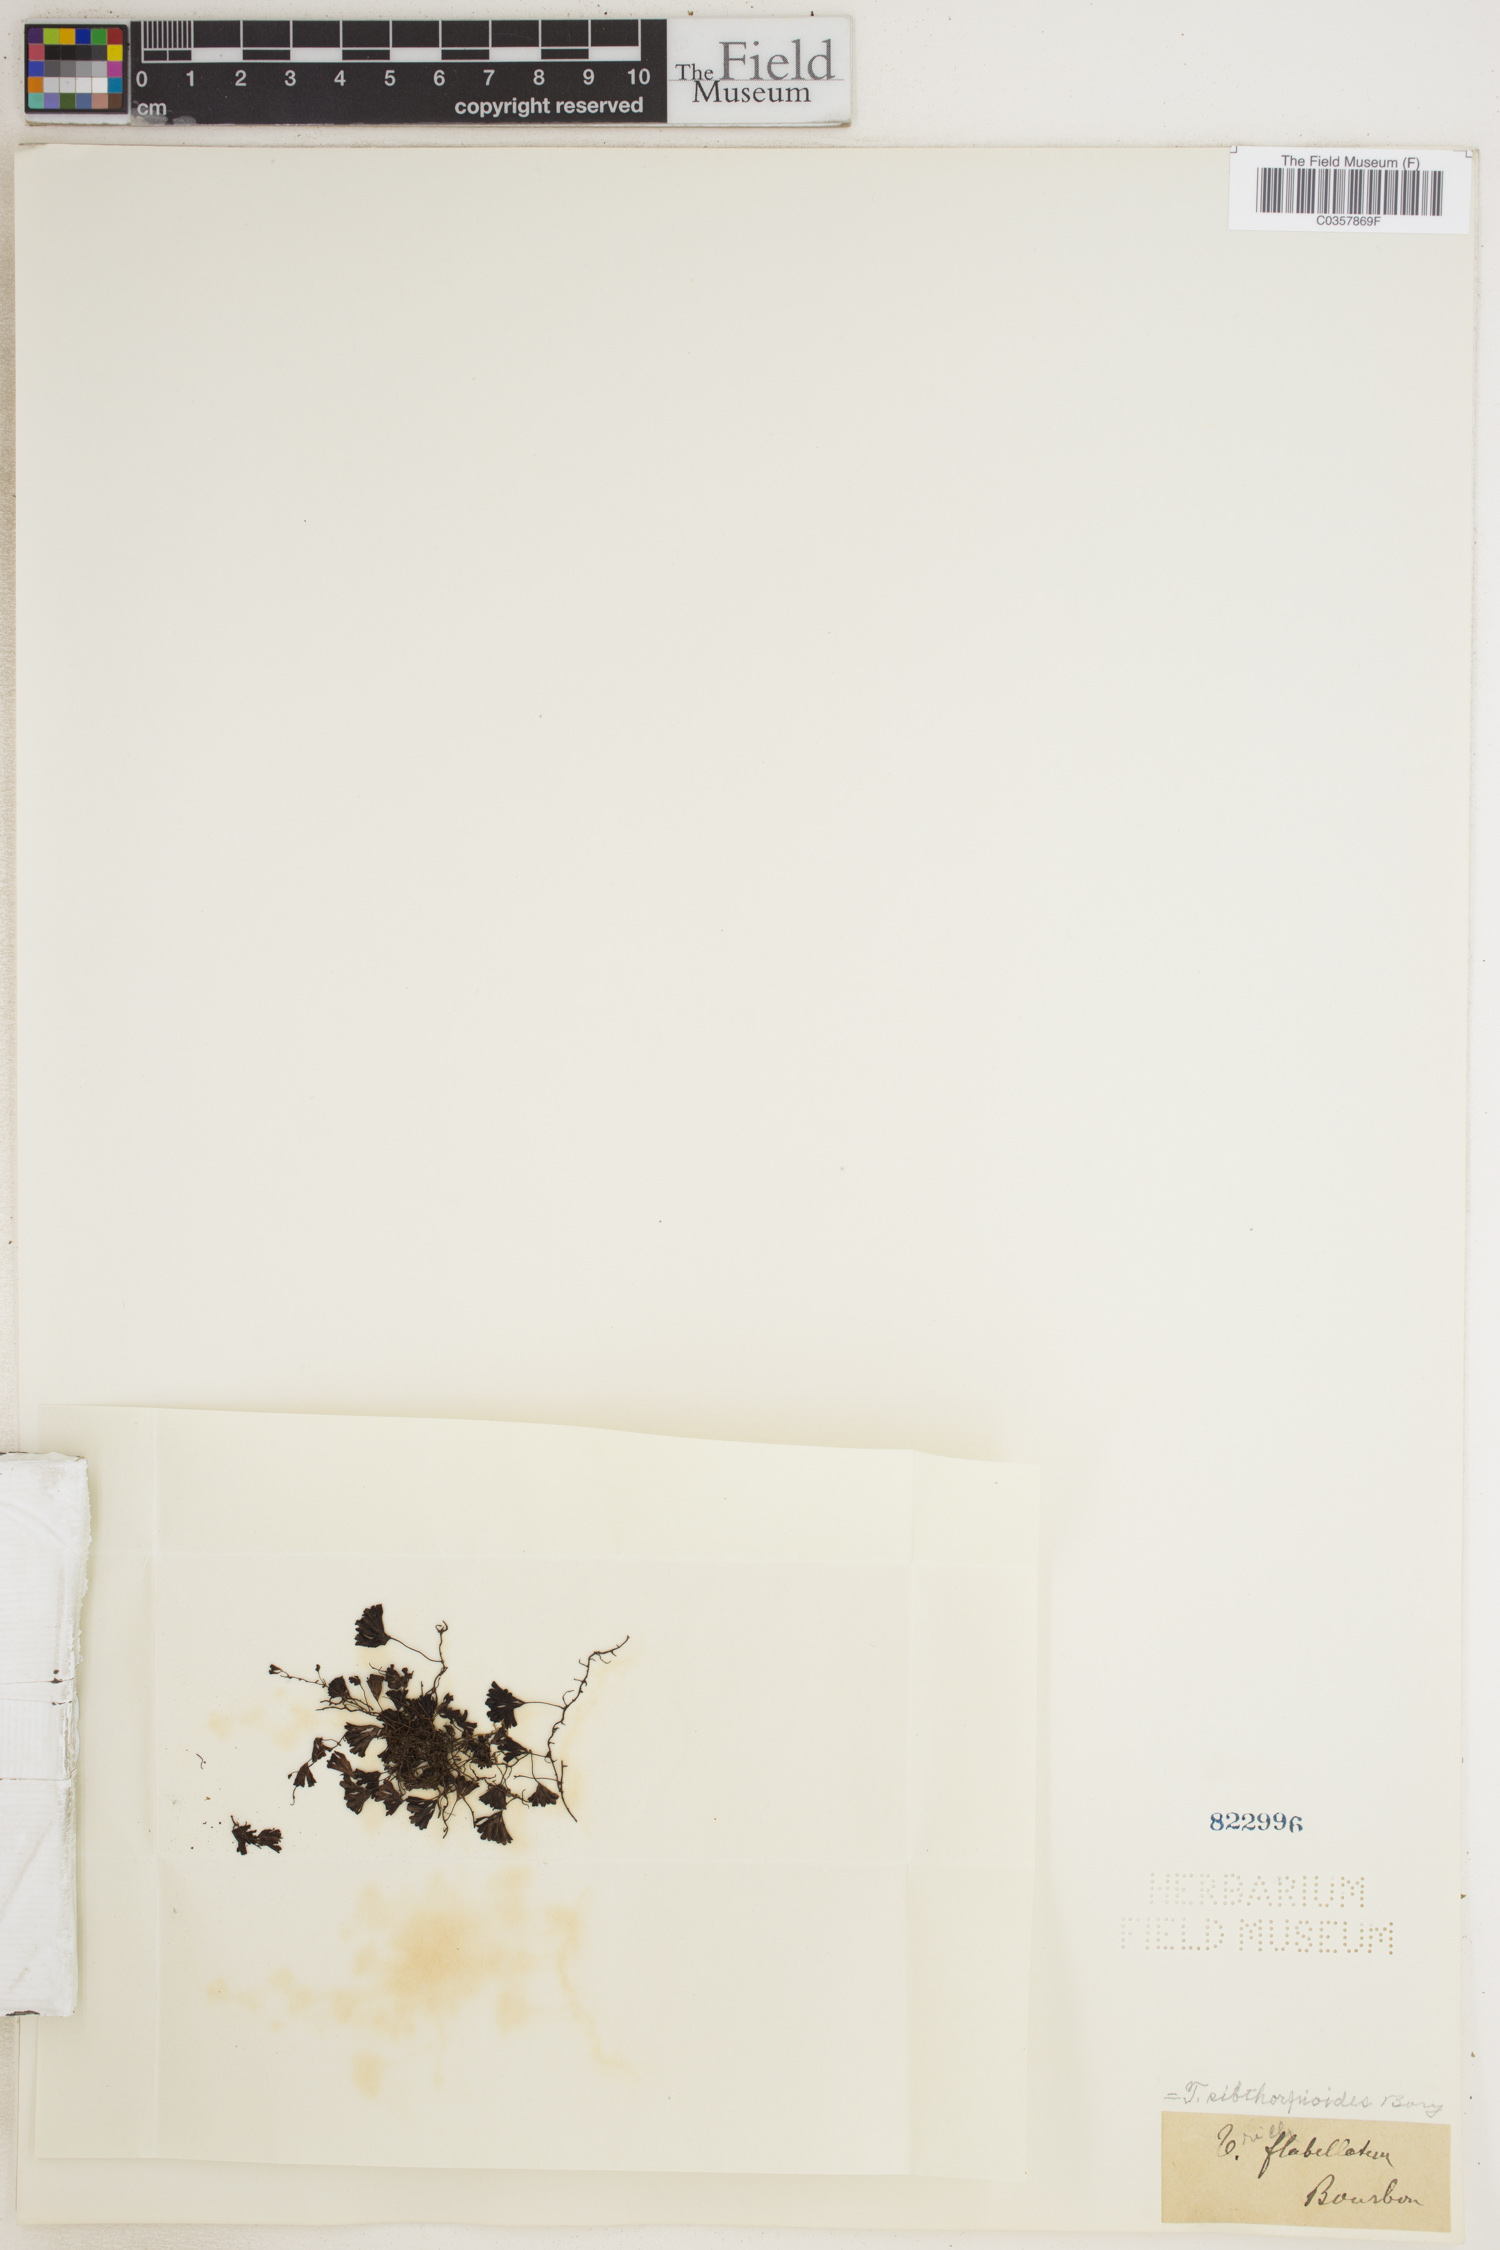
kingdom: Plantae
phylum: Tracheophyta
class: Polypodiopsida
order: Hymenophyllales
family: Hymenophyllaceae
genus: Hymenophyllum
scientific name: Hymenophyllum sibthorpioides
